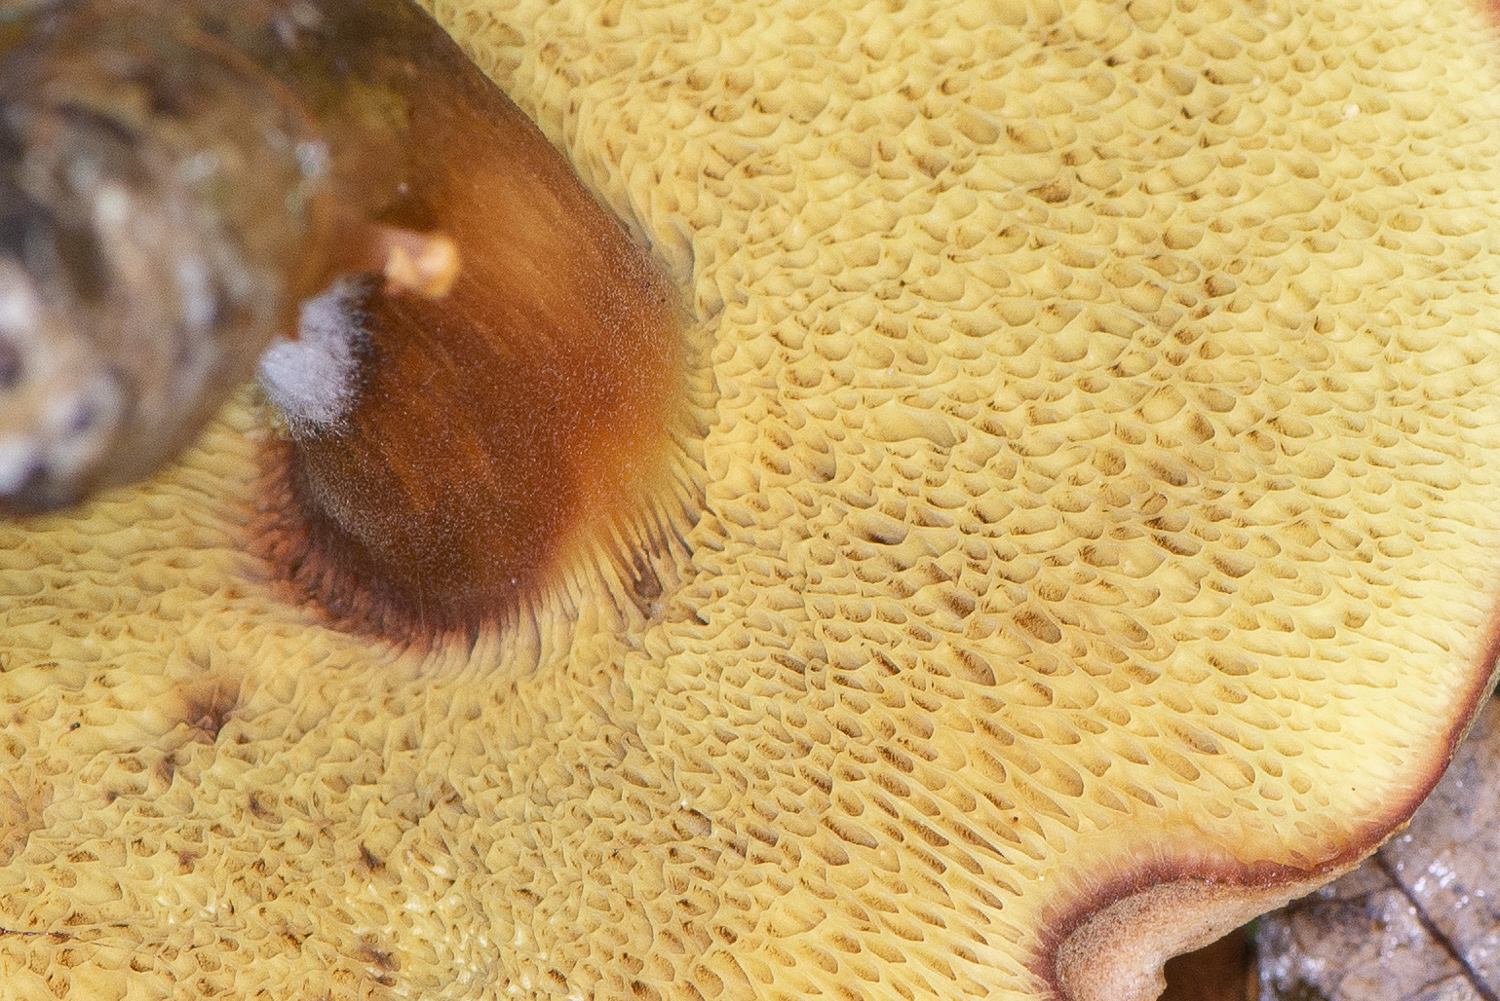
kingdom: Fungi
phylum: Basidiomycota
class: Agaricomycetes
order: Boletales
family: Boletaceae
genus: Xerocomus
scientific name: Xerocomus ferrugineus
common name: vaskeskinds-rørhat
